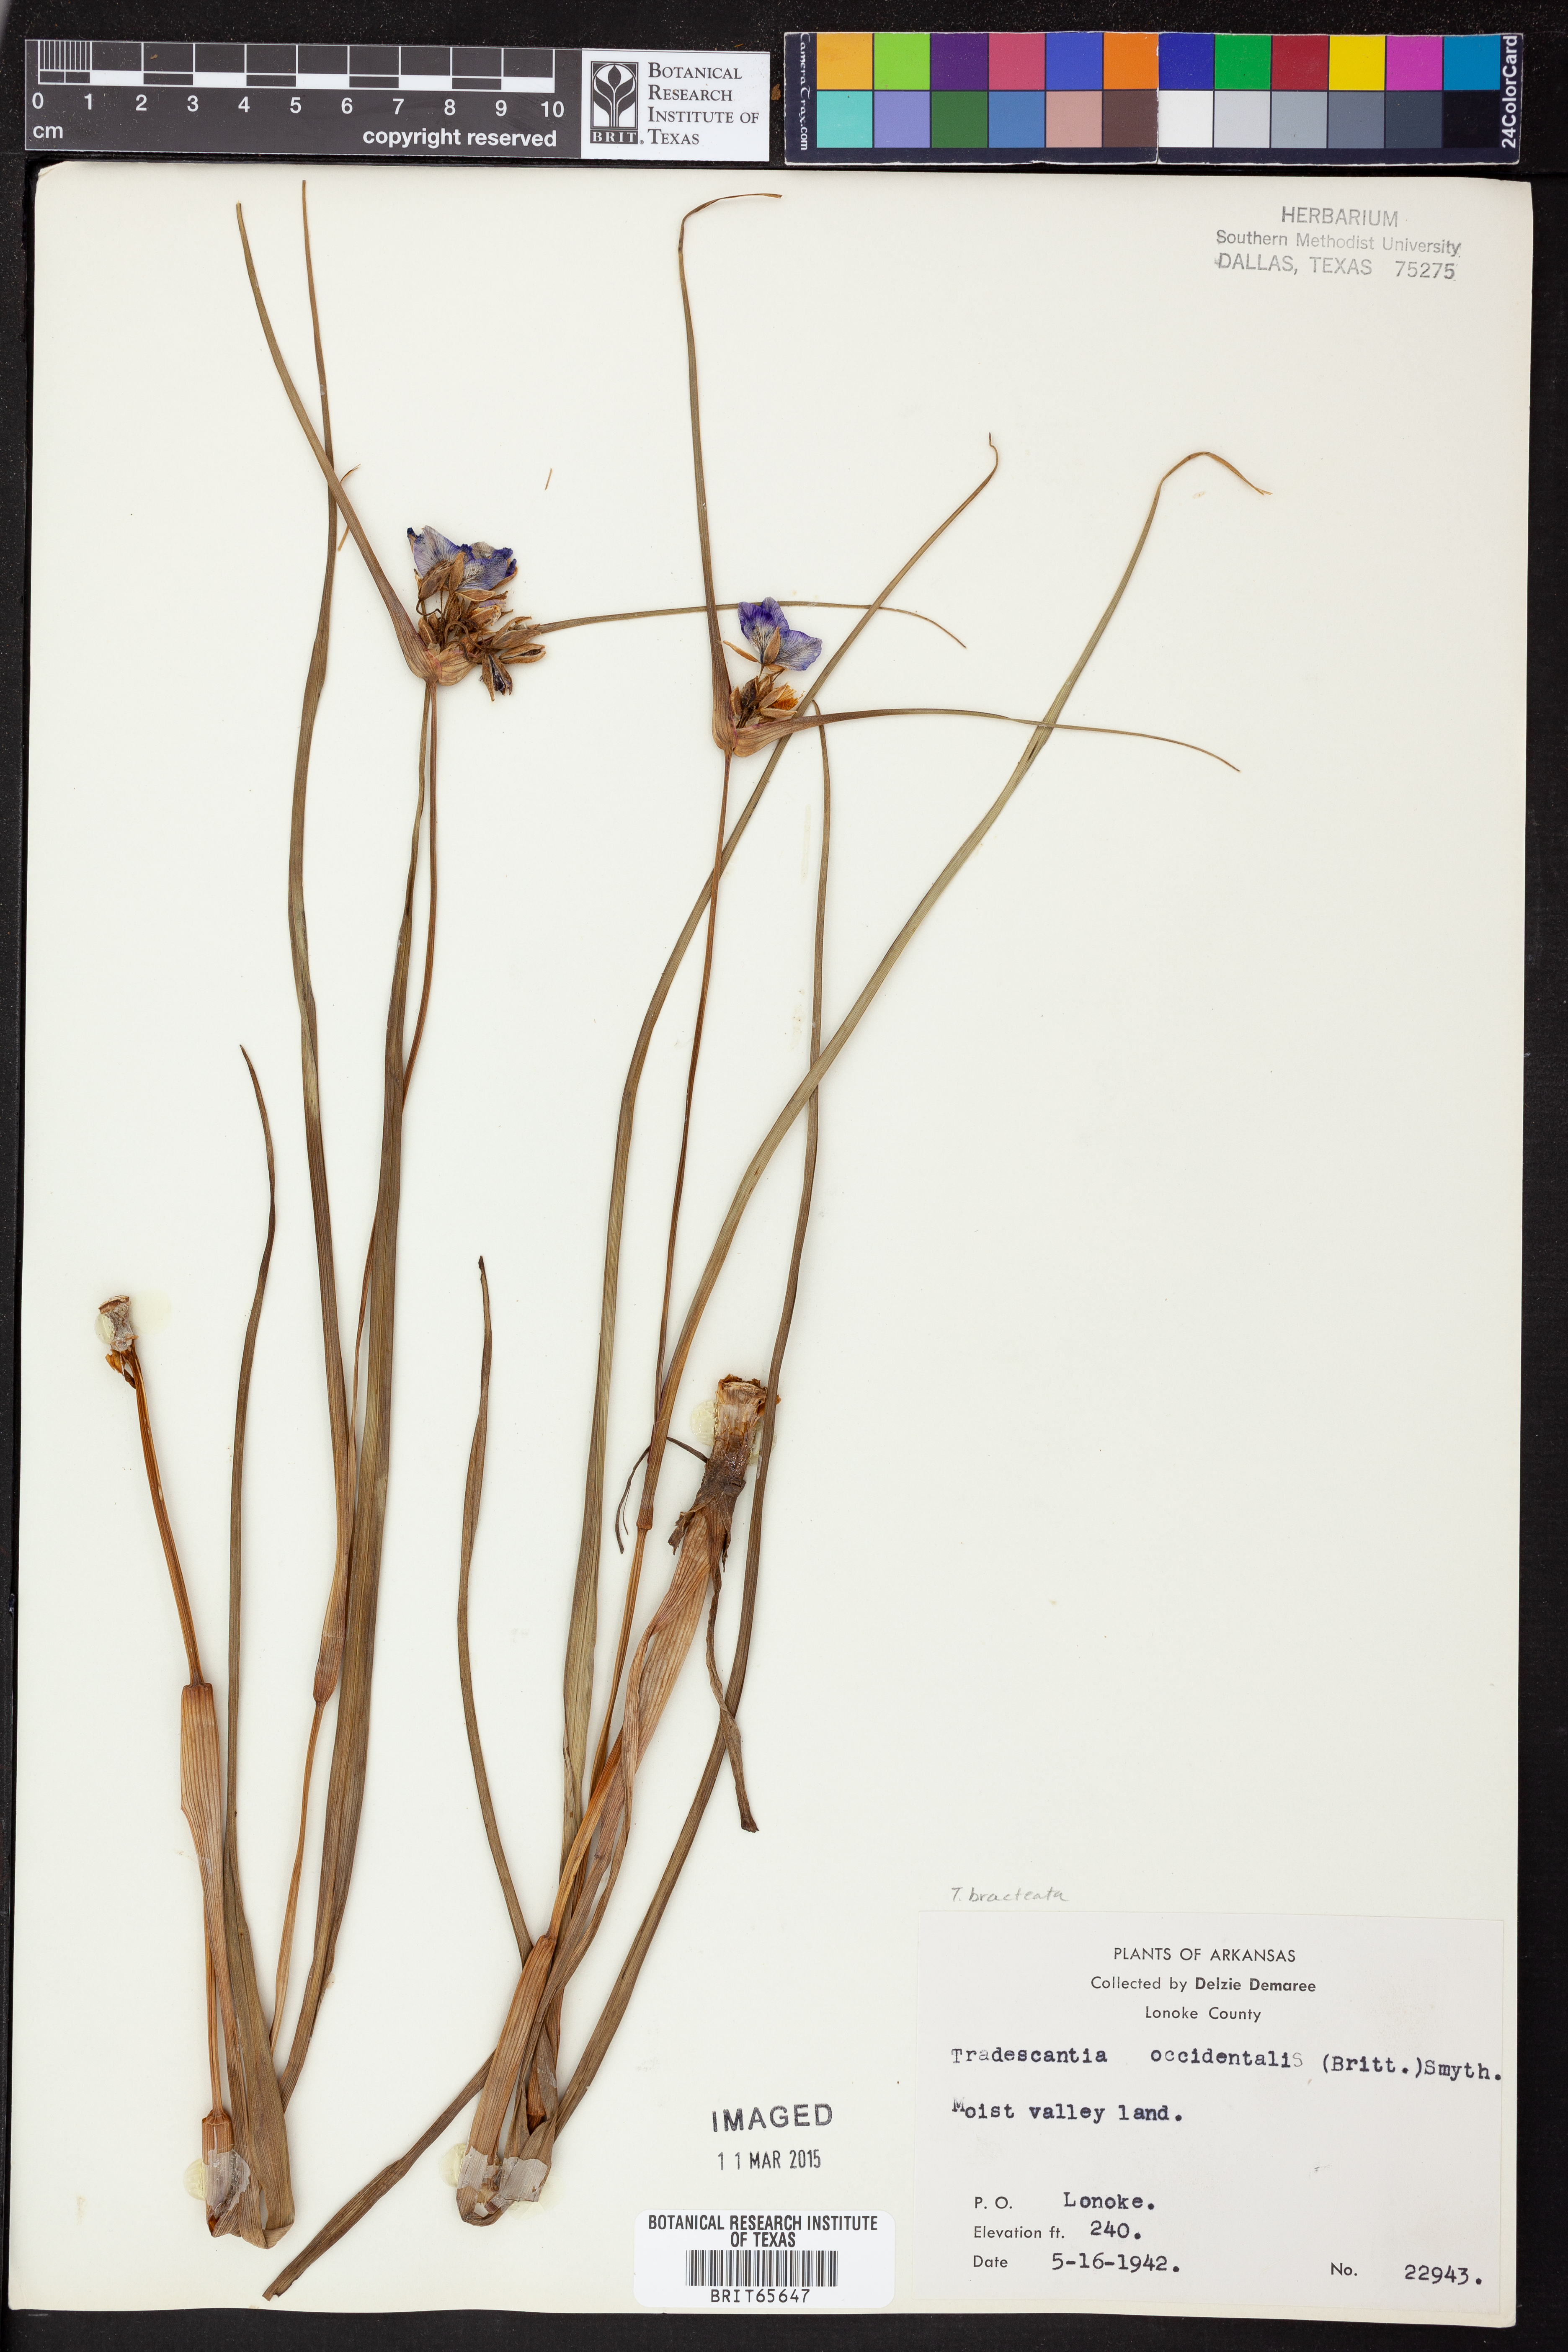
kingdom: Plantae
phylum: Tracheophyta
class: Liliopsida
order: Commelinales
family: Commelinaceae
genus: Tradescantia
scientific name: Tradescantia occidentalis
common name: Prairie spiderwort
